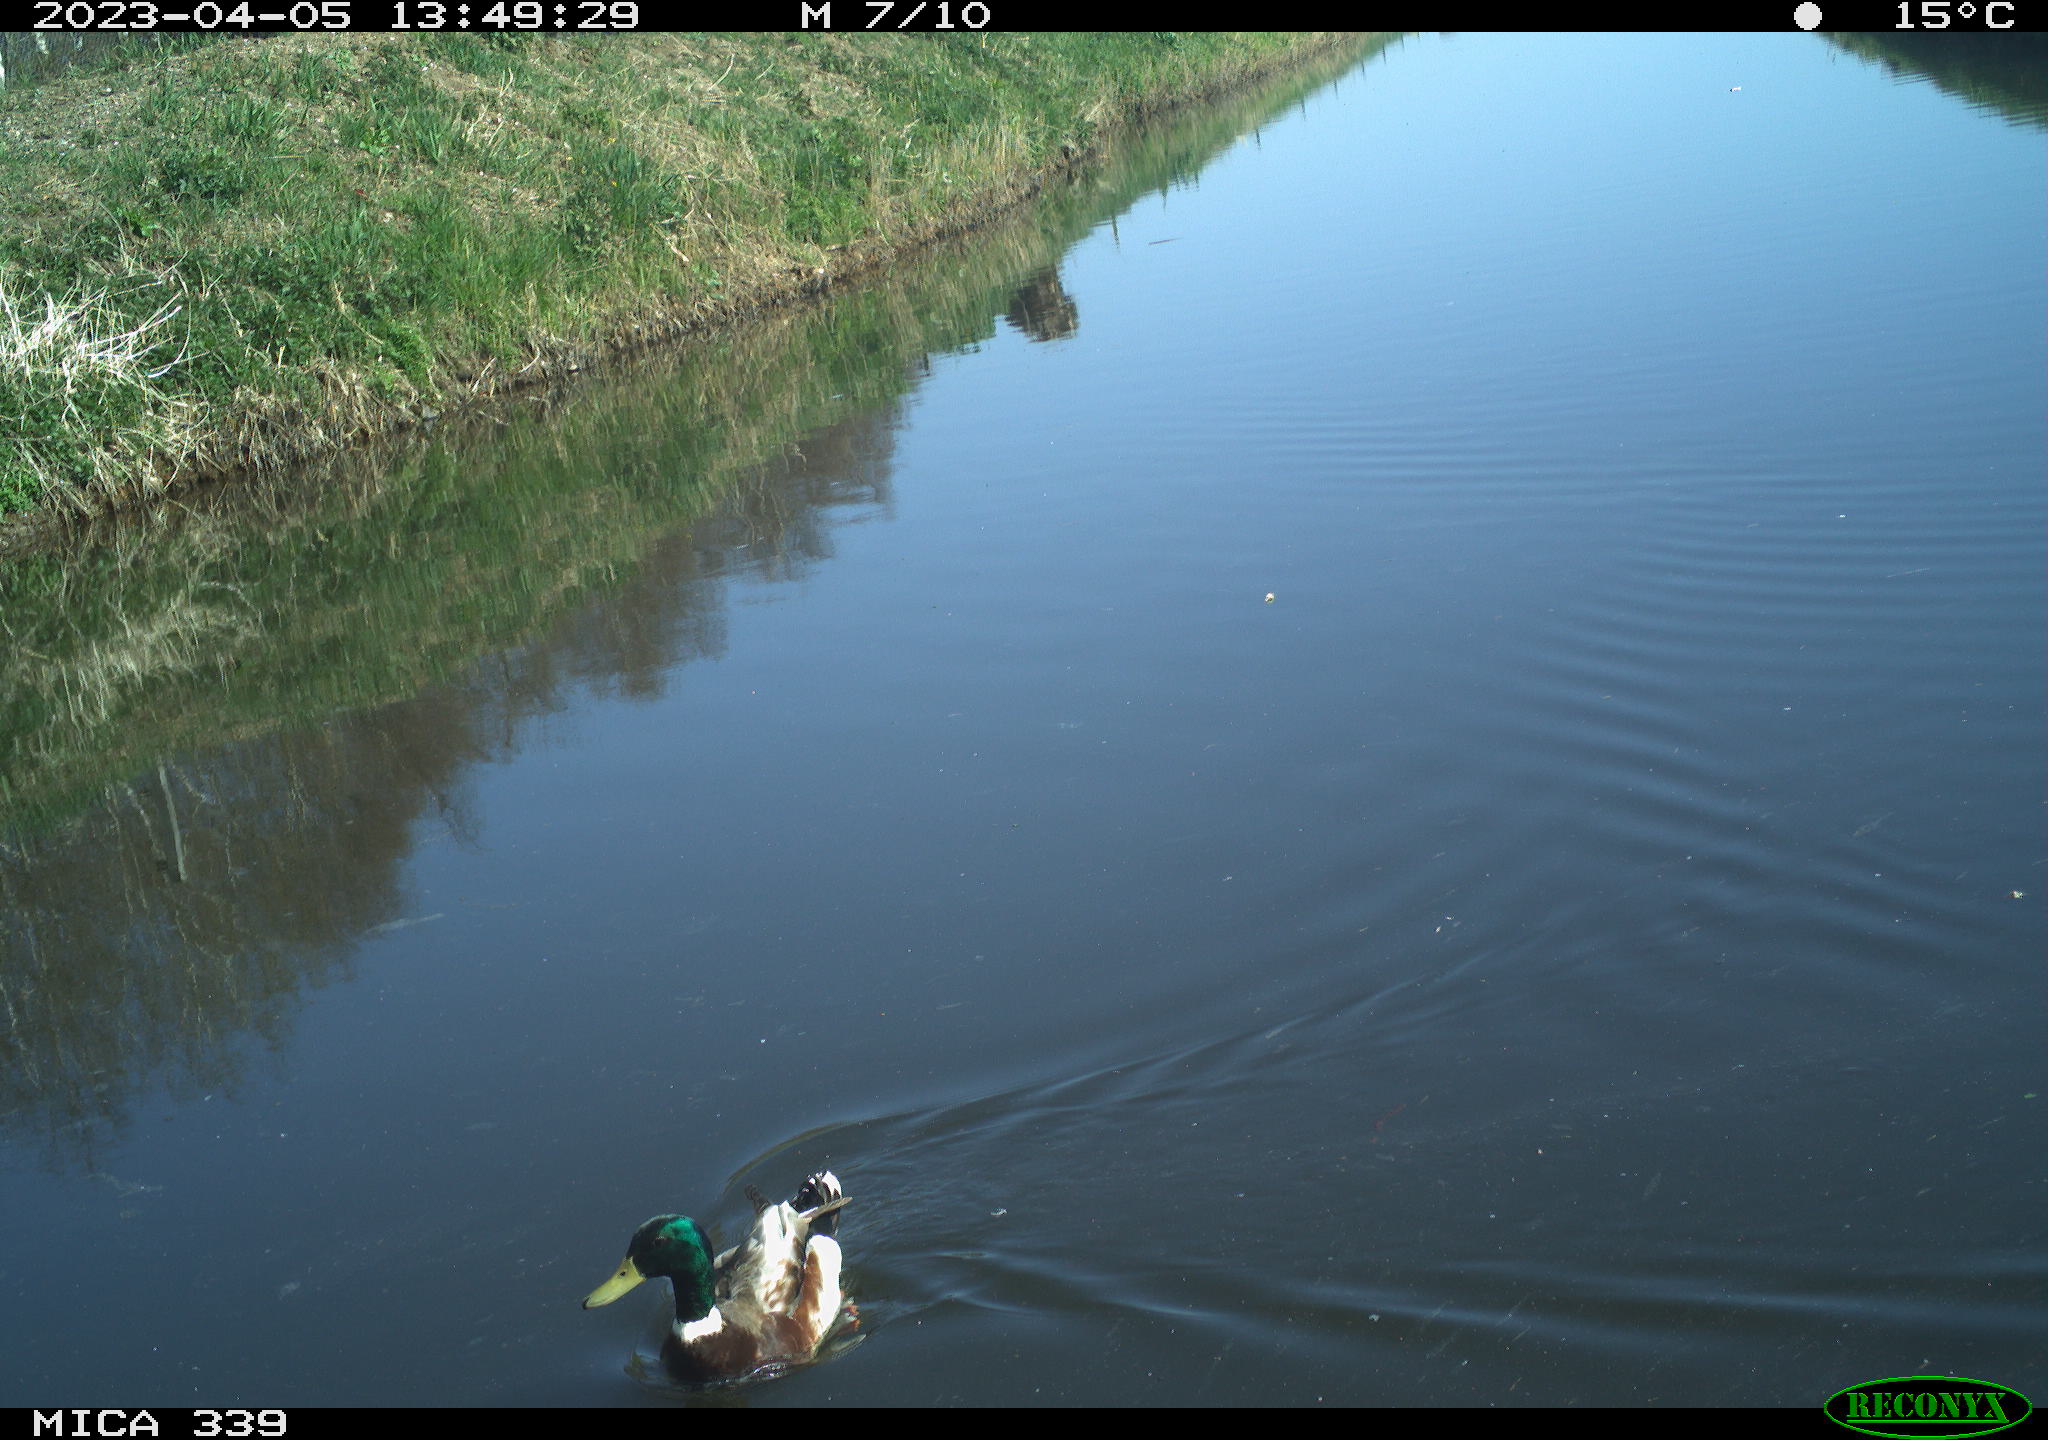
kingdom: Animalia
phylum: Chordata
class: Aves
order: Anseriformes
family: Anatidae
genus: Anas
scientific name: Anas platyrhynchos
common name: Mallard
